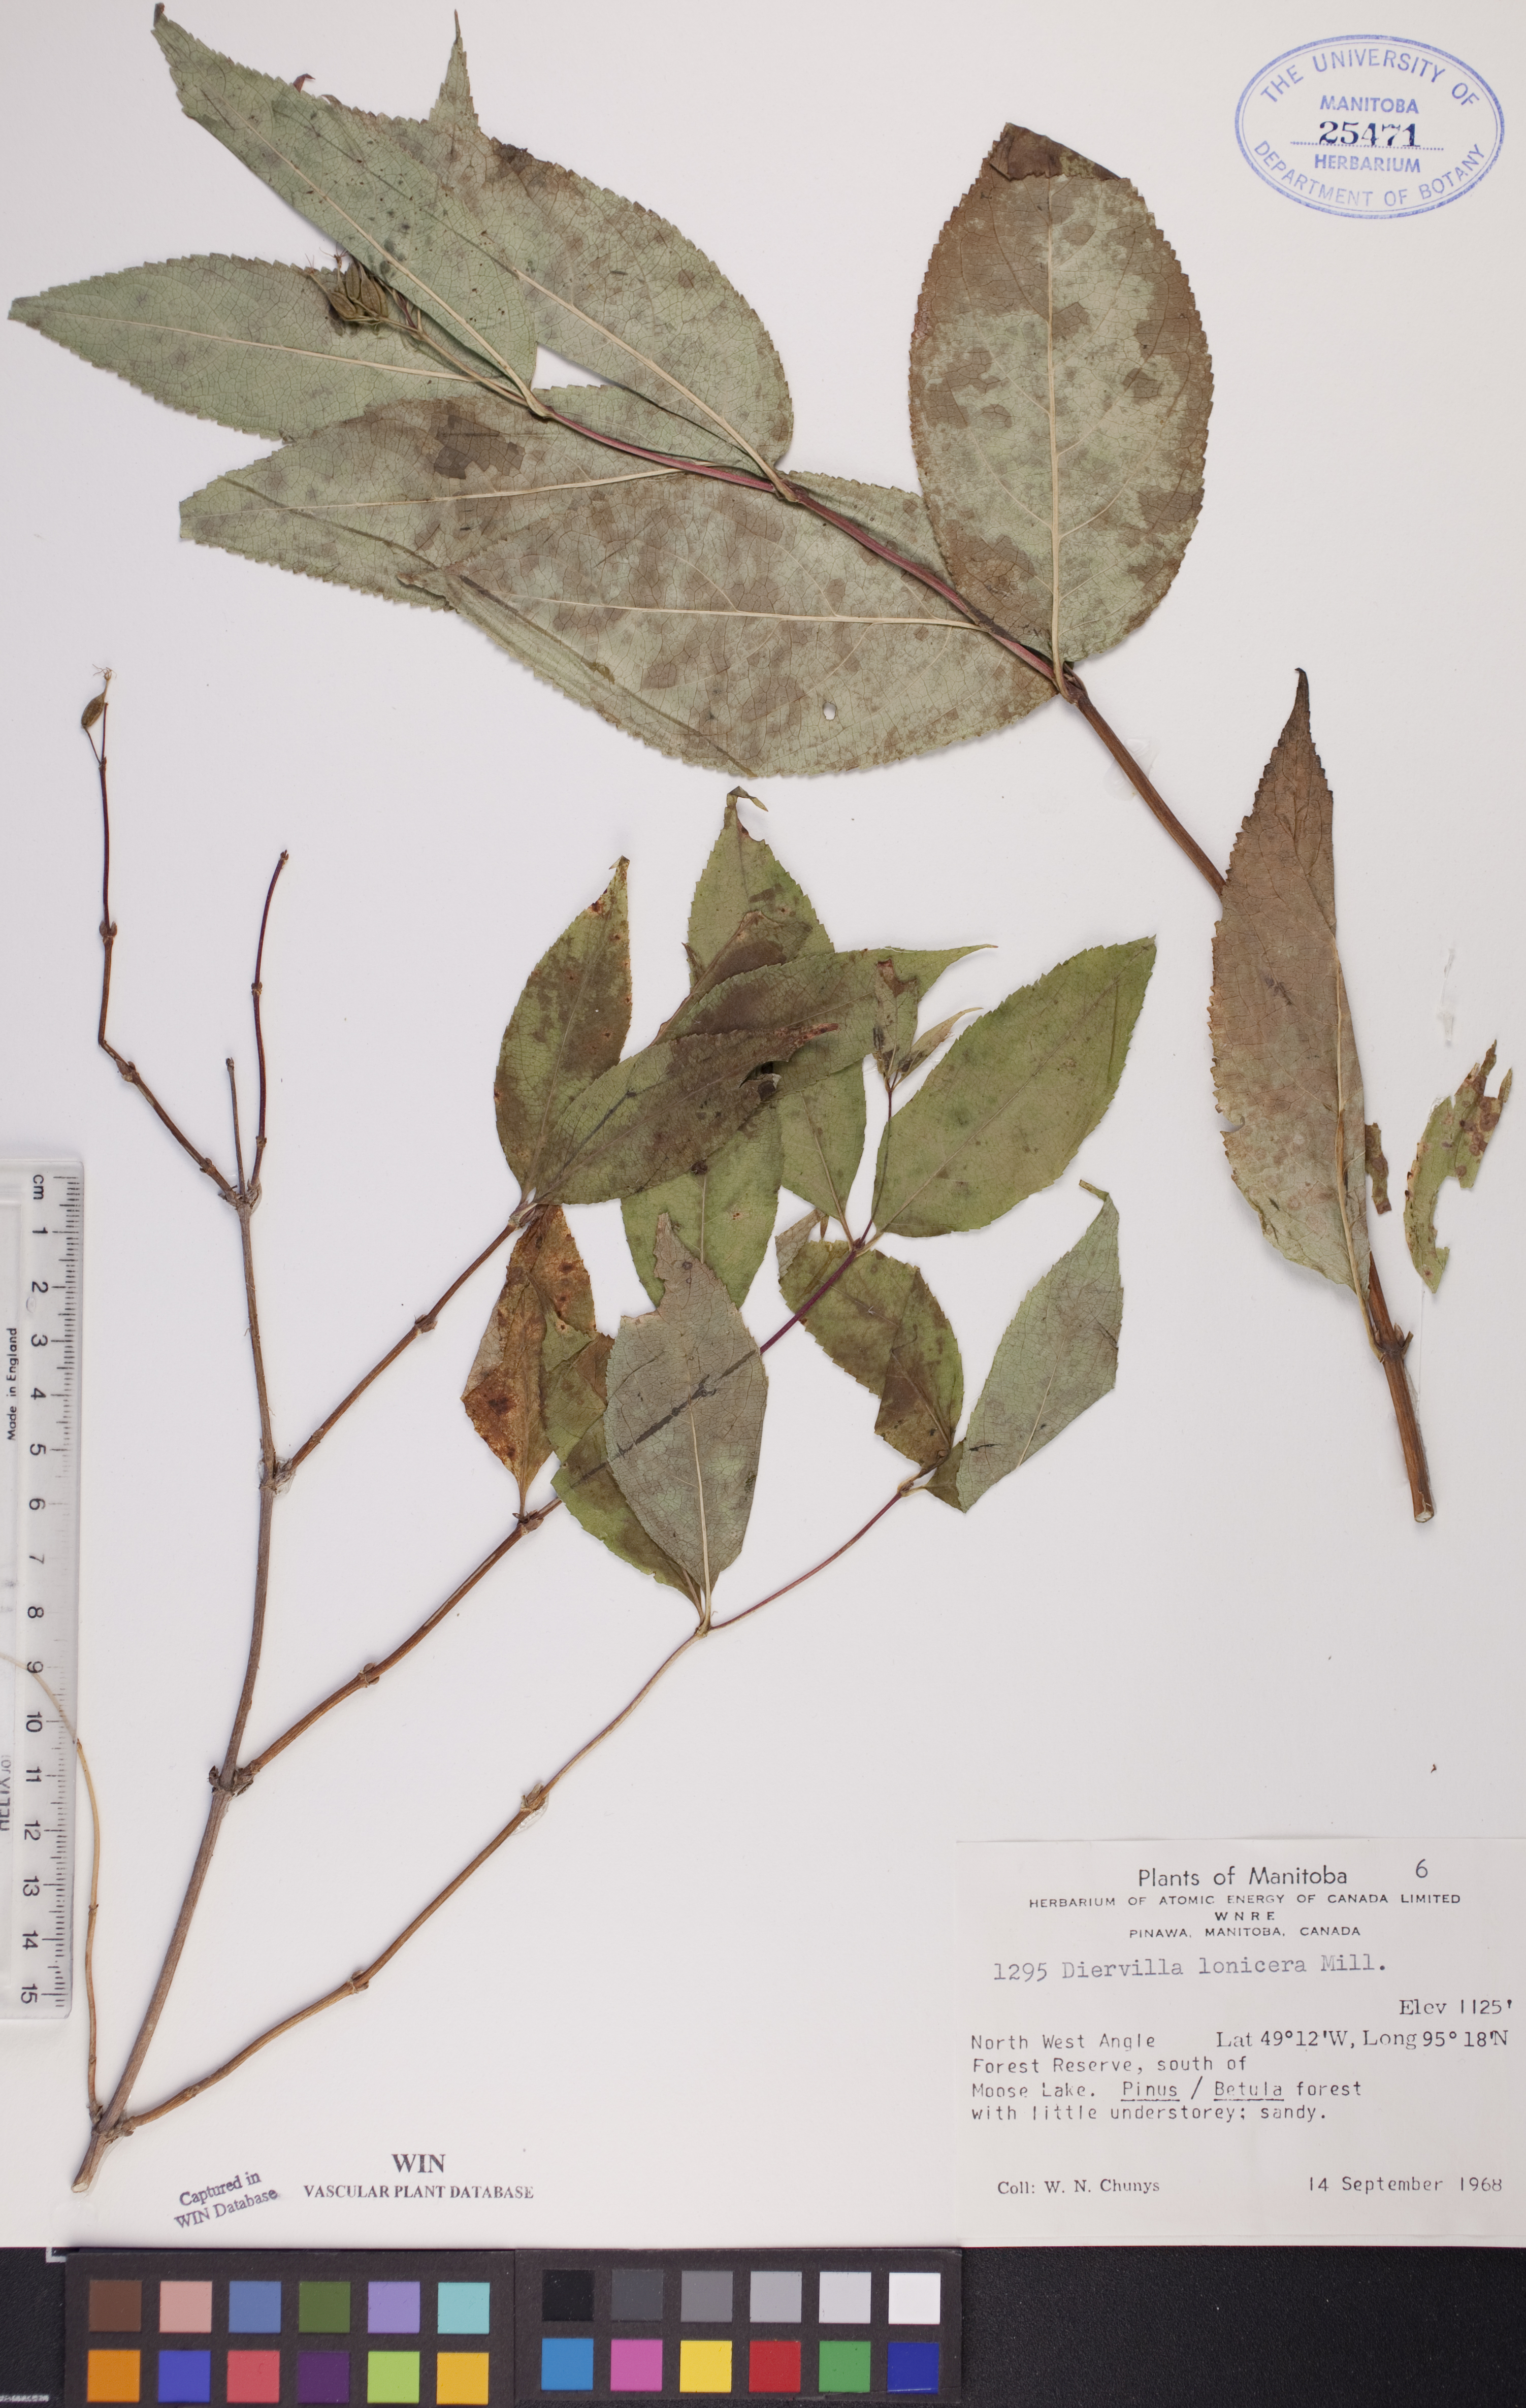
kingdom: Plantae
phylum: Tracheophyta
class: Magnoliopsida
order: Dipsacales
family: Caprifoliaceae
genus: Diervilla
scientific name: Diervilla lonicera
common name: Bush-honeysuckle
